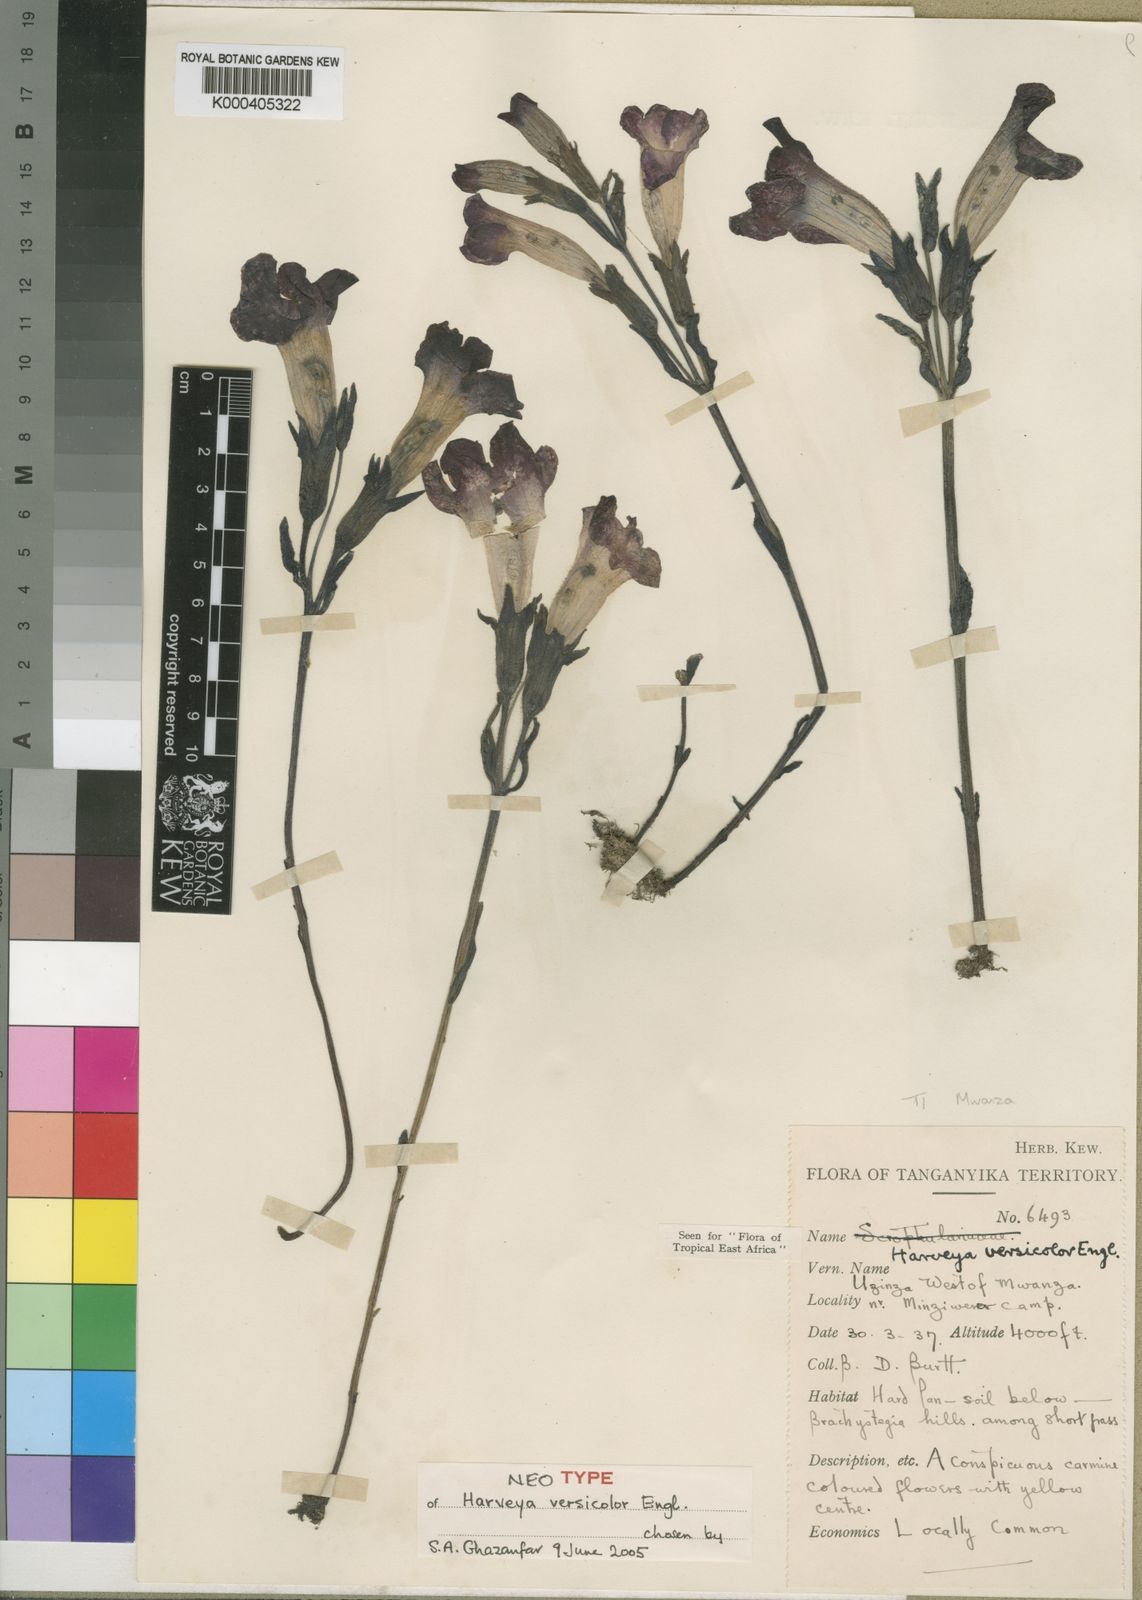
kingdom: Plantae
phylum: Tracheophyta
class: Magnoliopsida
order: Lamiales
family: Orobanchaceae
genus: Harveya
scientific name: Harveya versicolor
